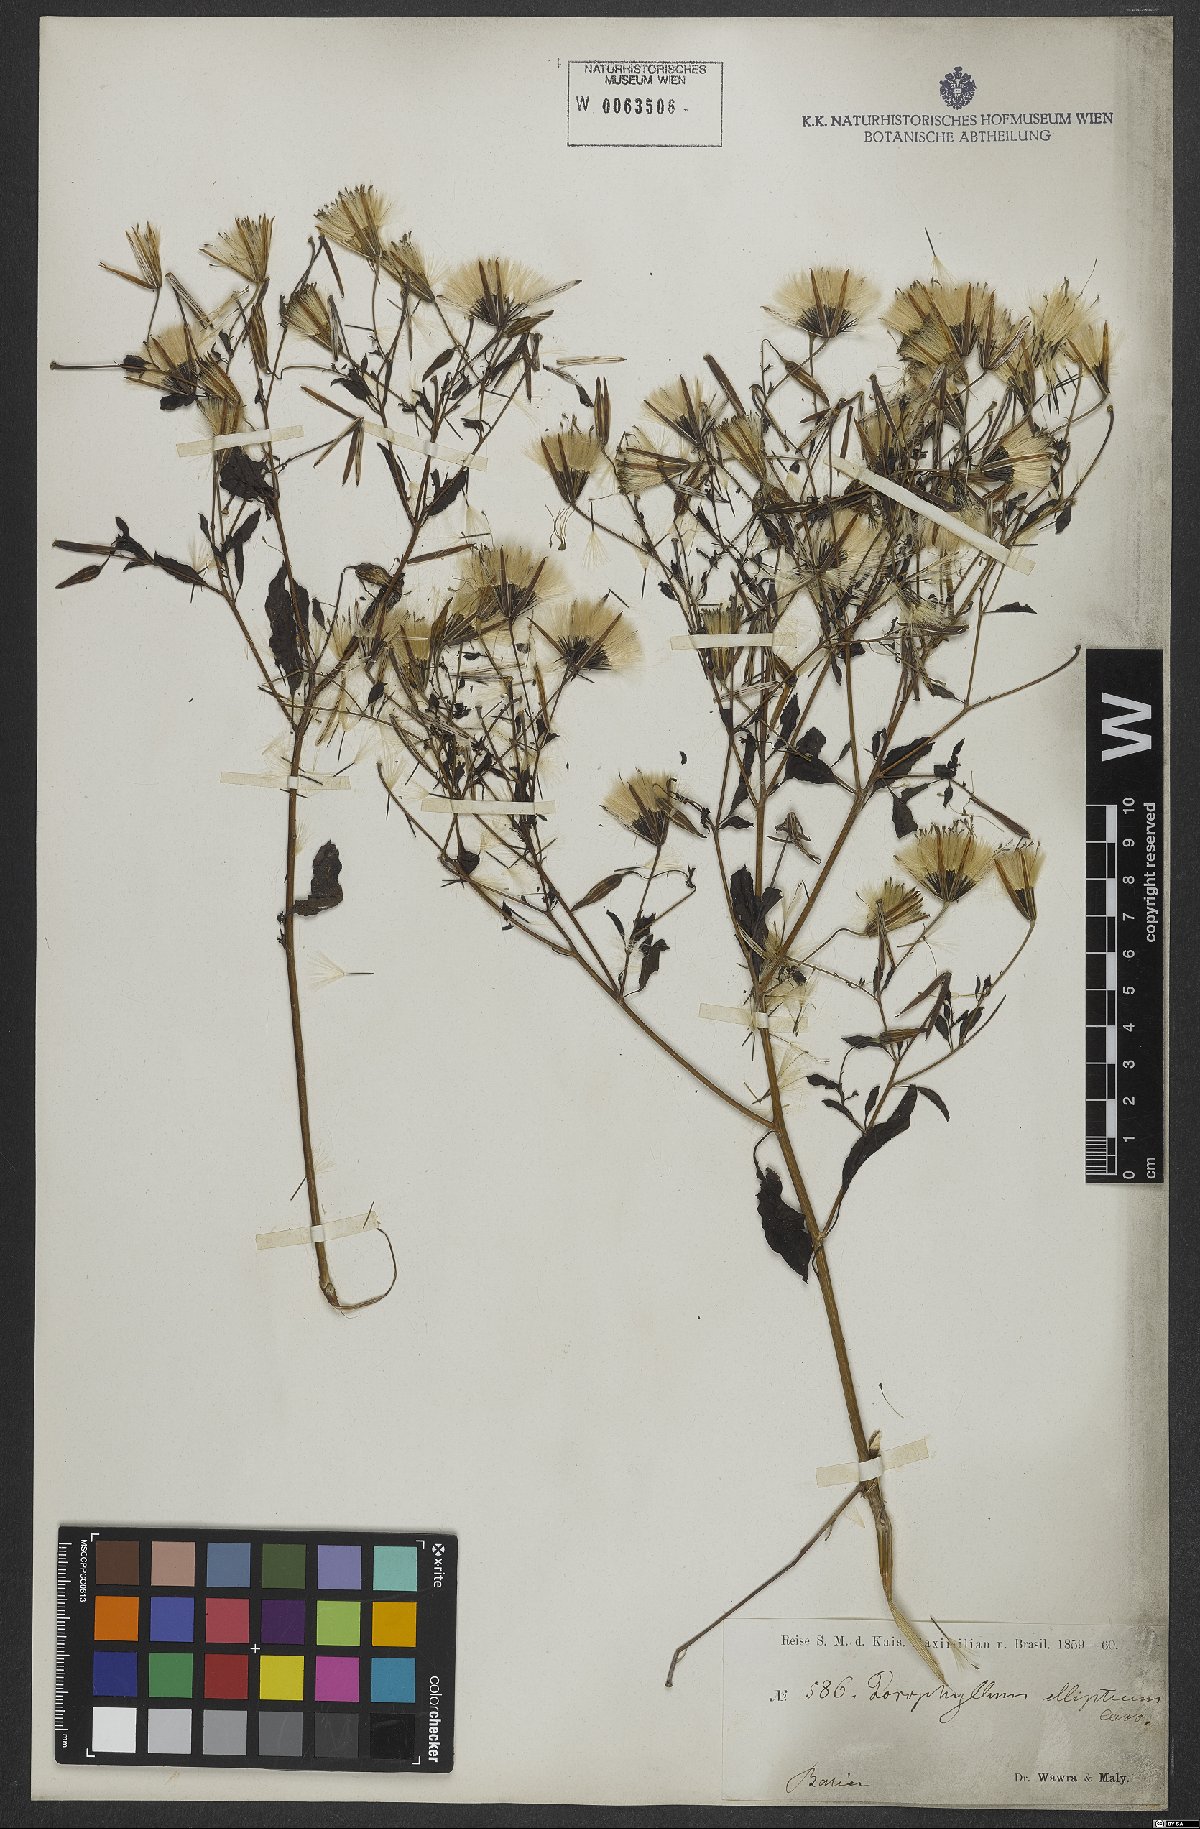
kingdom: Plantae
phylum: Tracheophyta
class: Magnoliopsida
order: Asterales
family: Asteraceae
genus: Porophyllum
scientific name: Porophyllum ruderale
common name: Yerba porosa
